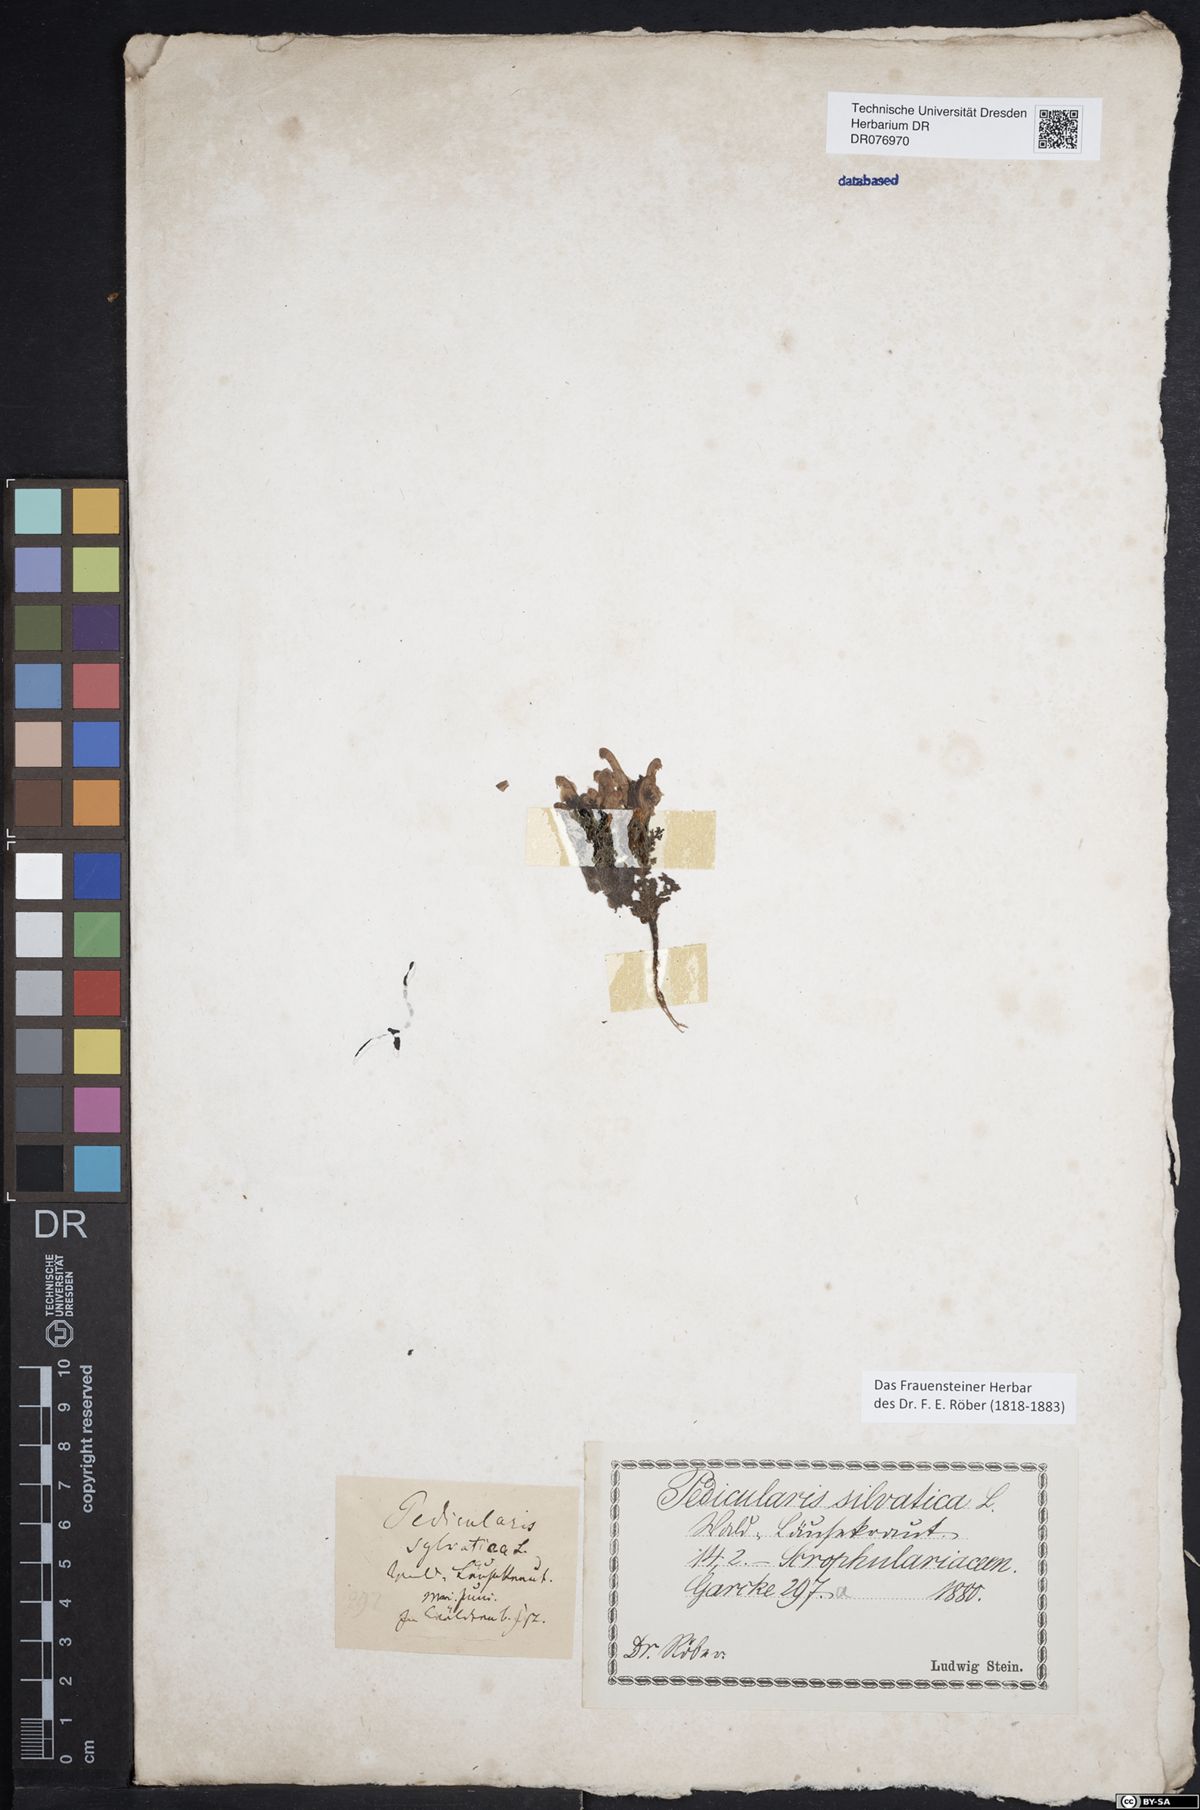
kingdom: Plantae
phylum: Tracheophyta
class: Magnoliopsida
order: Lamiales
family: Orobanchaceae
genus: Pedicularis
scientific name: Pedicularis sylvatica
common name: Lousewort
